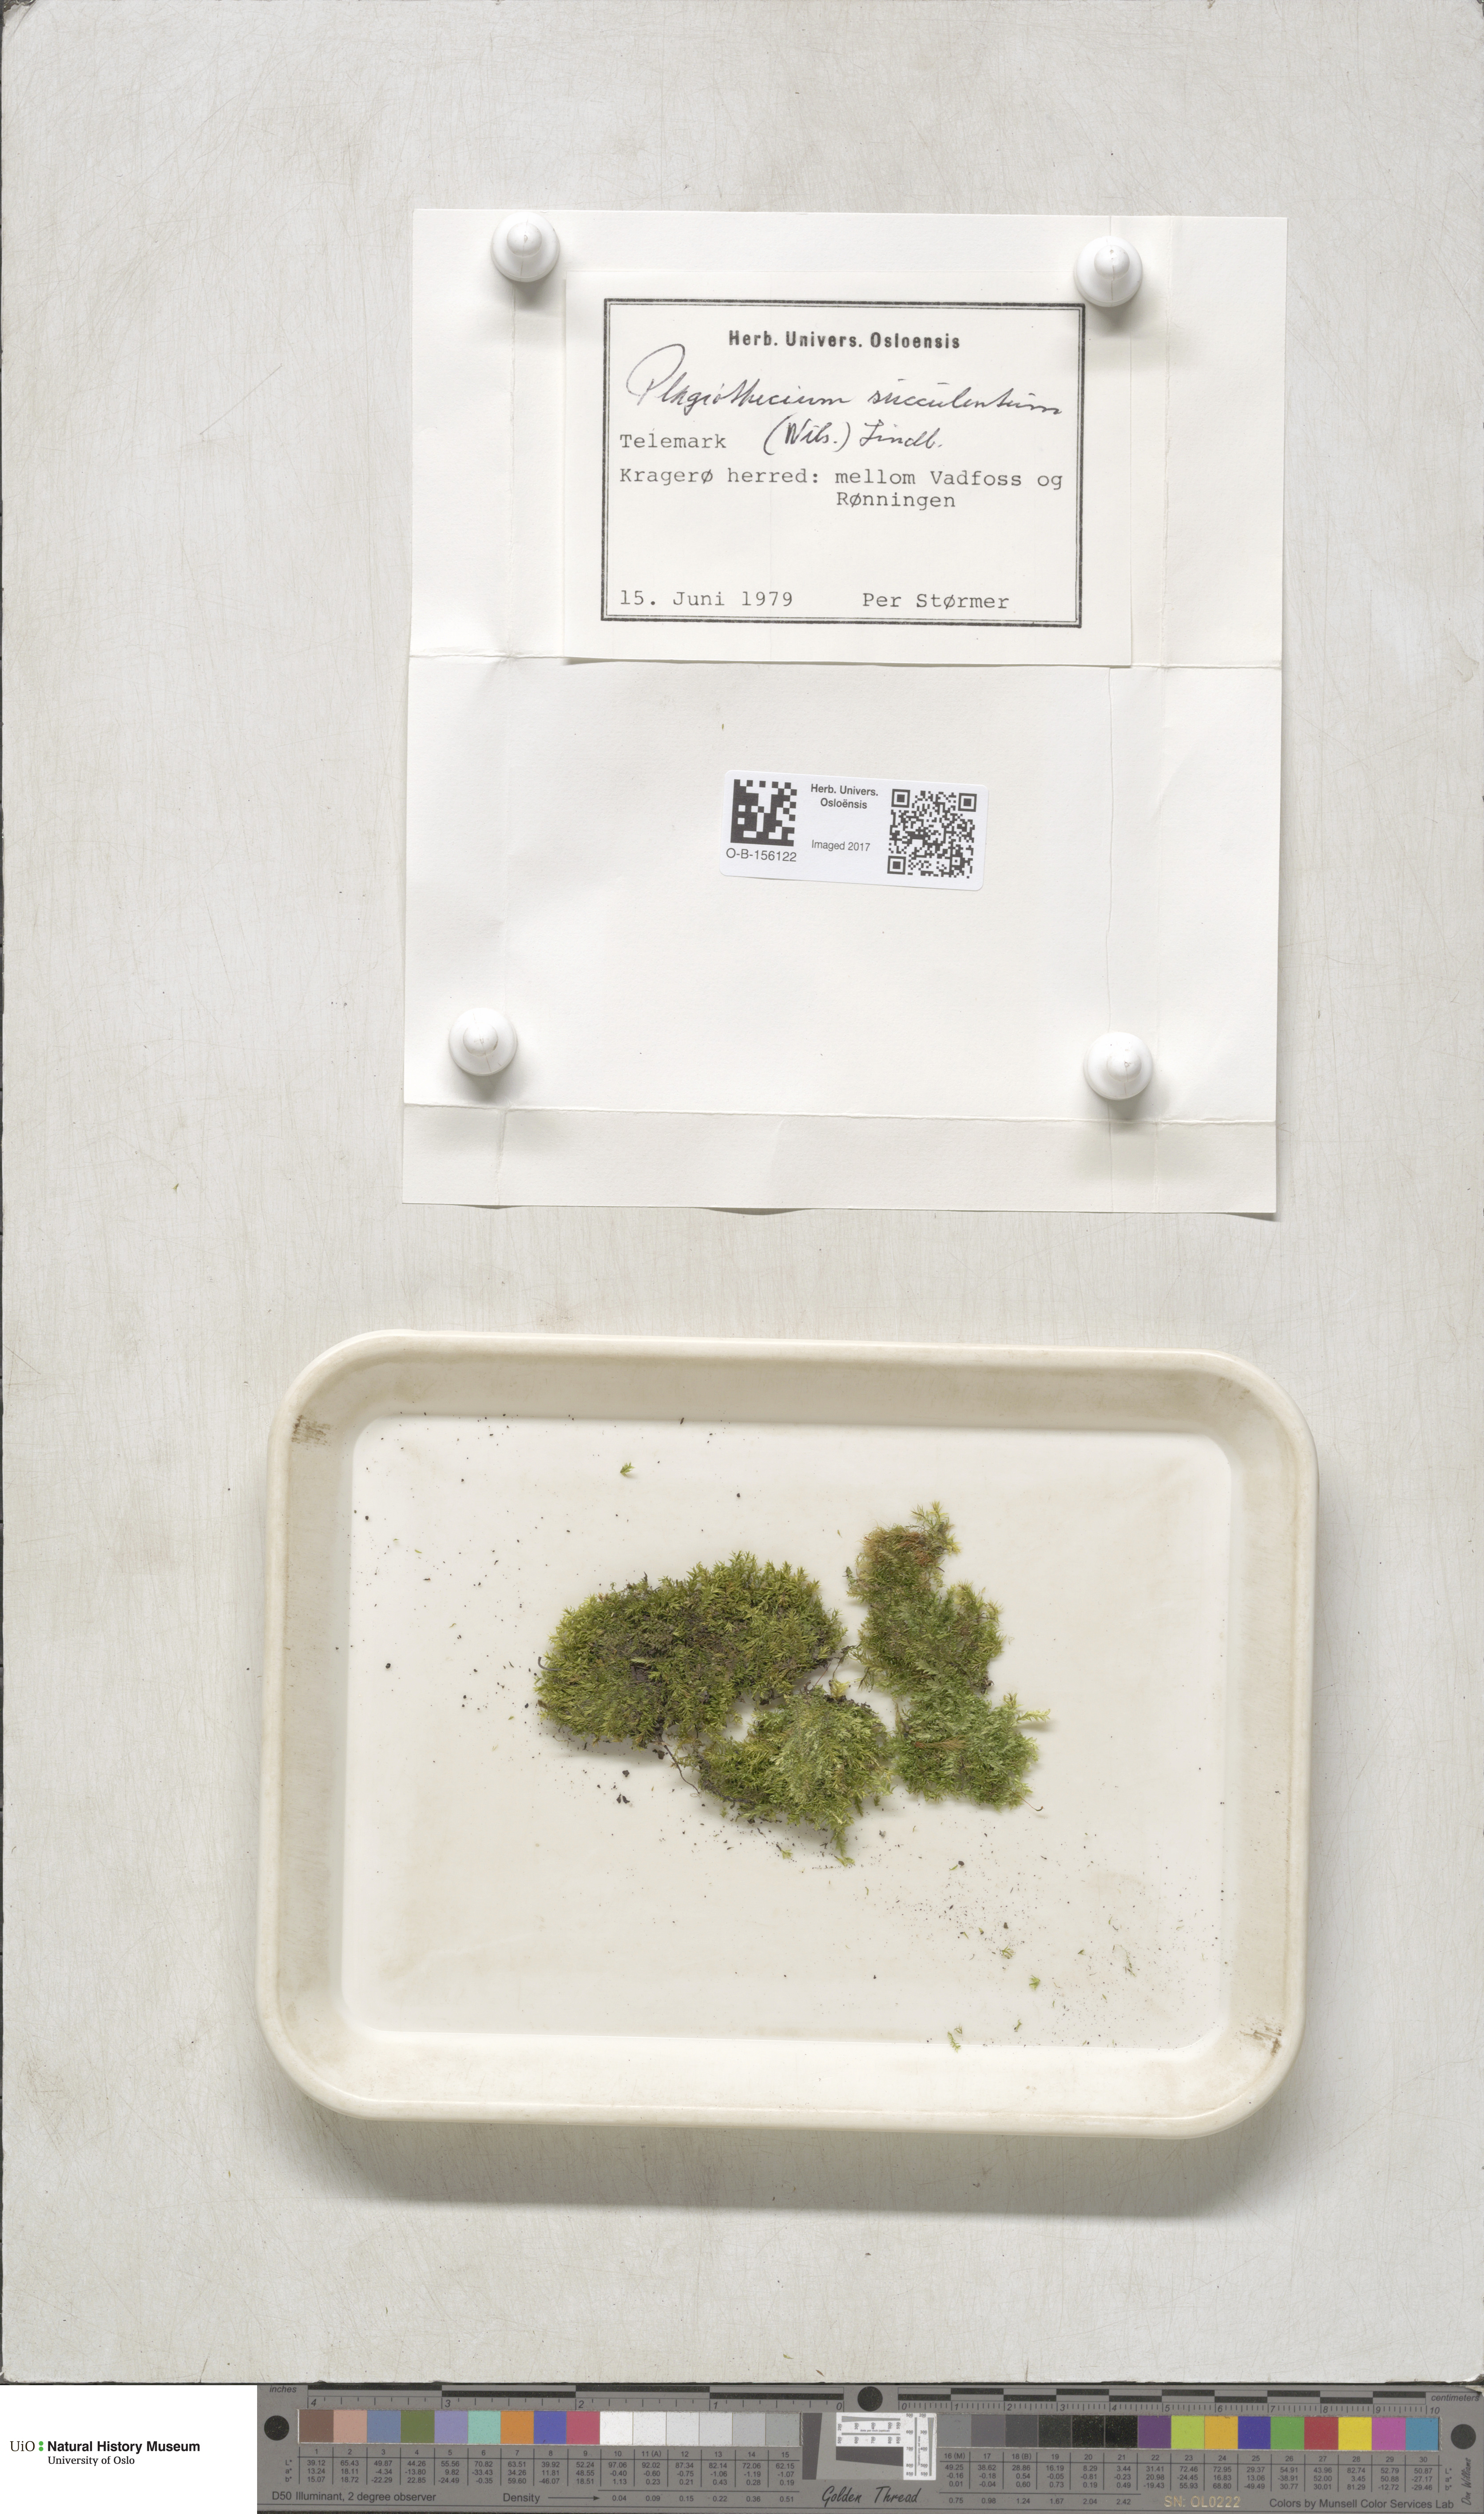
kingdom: Plantae
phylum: Bryophyta
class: Bryopsida
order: Hypnales
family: Plagiotheciaceae
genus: Plagiothecium
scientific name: Plagiothecium nemorale
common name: Woodsy silk-moss
